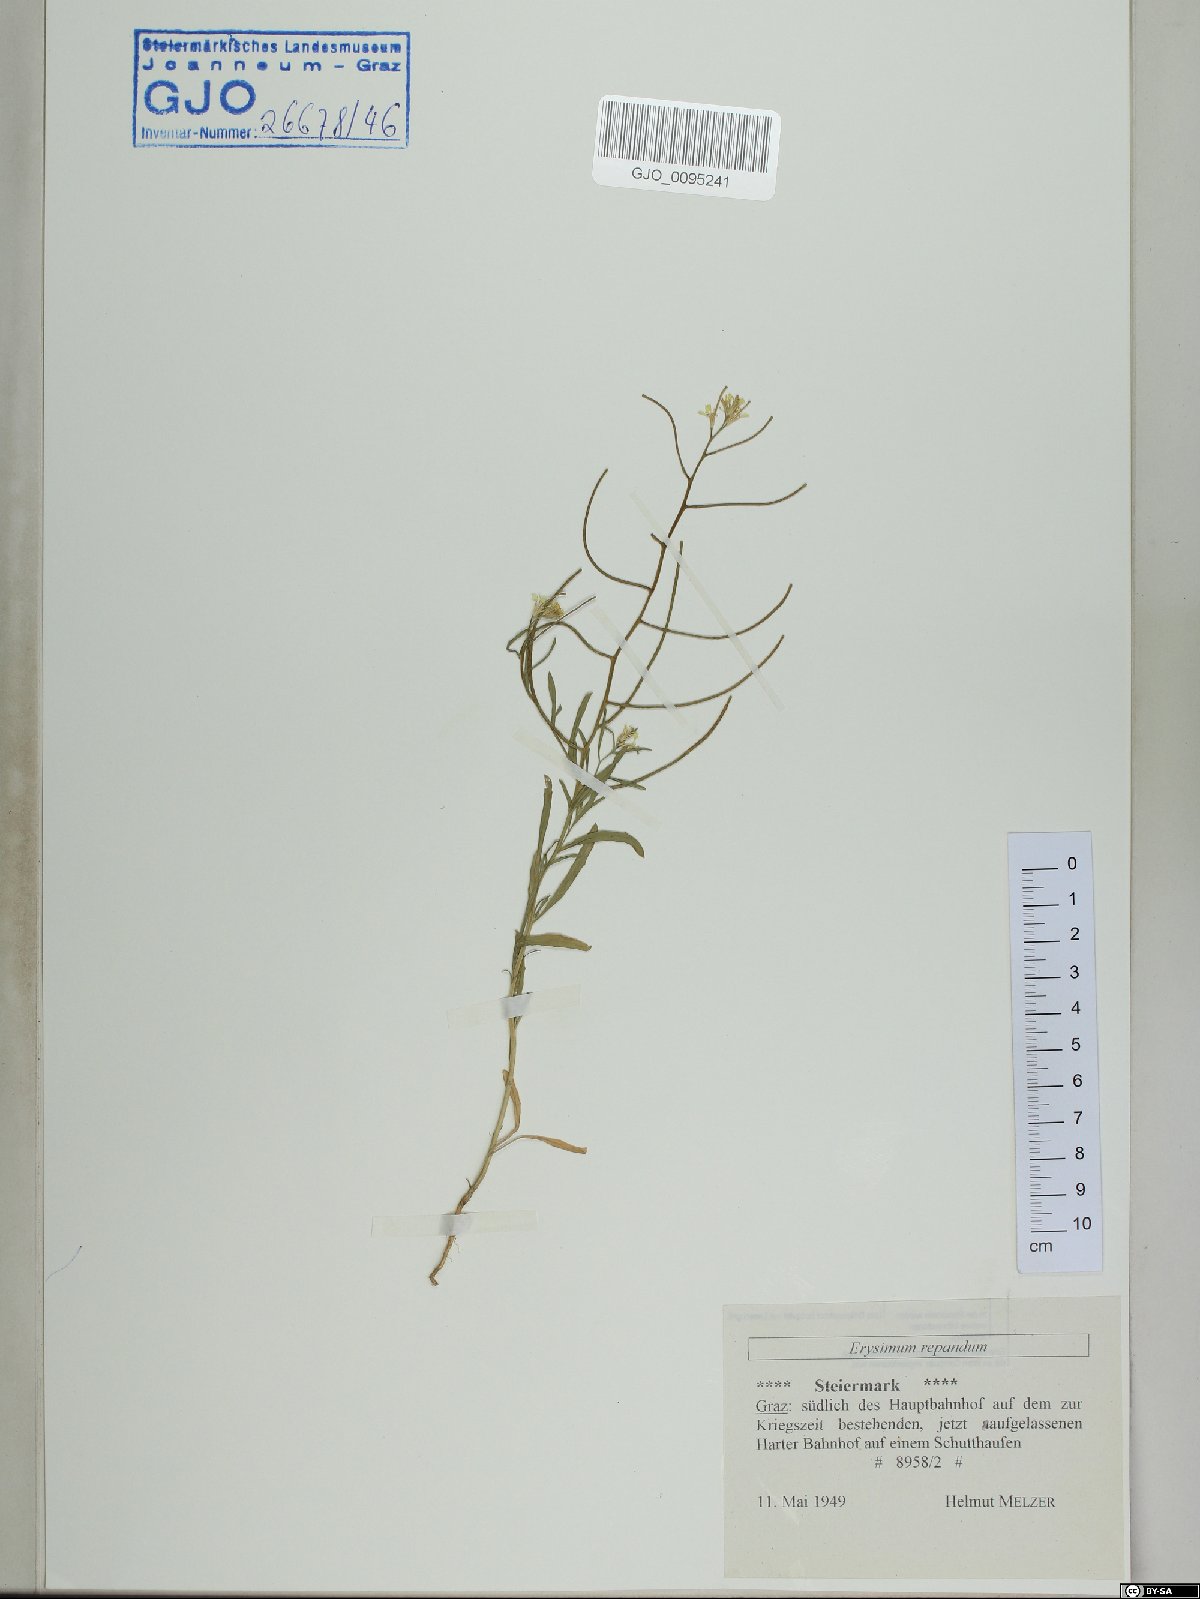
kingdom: Plantae
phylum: Tracheophyta
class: Magnoliopsida
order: Brassicales
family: Brassicaceae
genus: Erysimum
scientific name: Erysimum repandum
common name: Spreading wallflower
